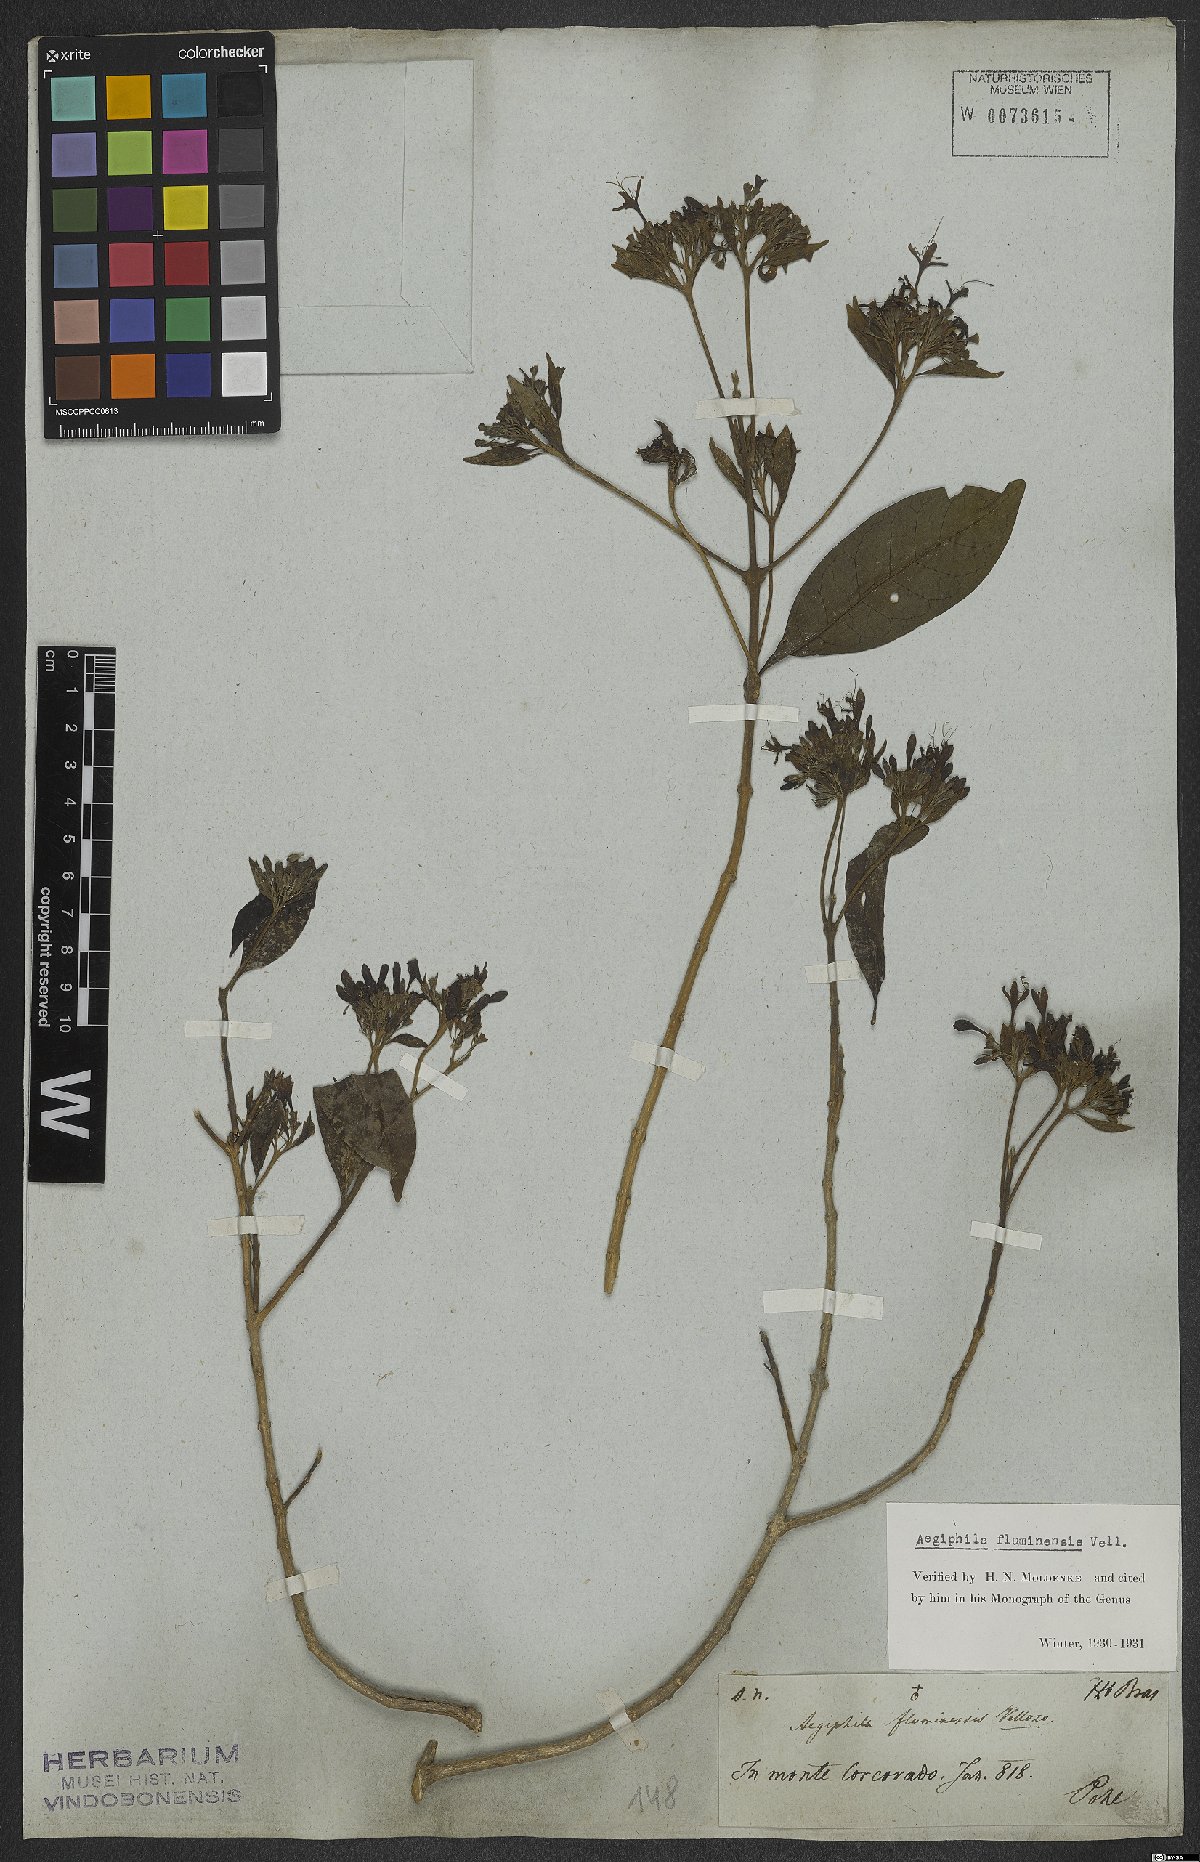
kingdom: Plantae
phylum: Tracheophyta
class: Magnoliopsida
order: Lamiales
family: Lamiaceae
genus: Aegiphila
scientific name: Aegiphila fluminensis
